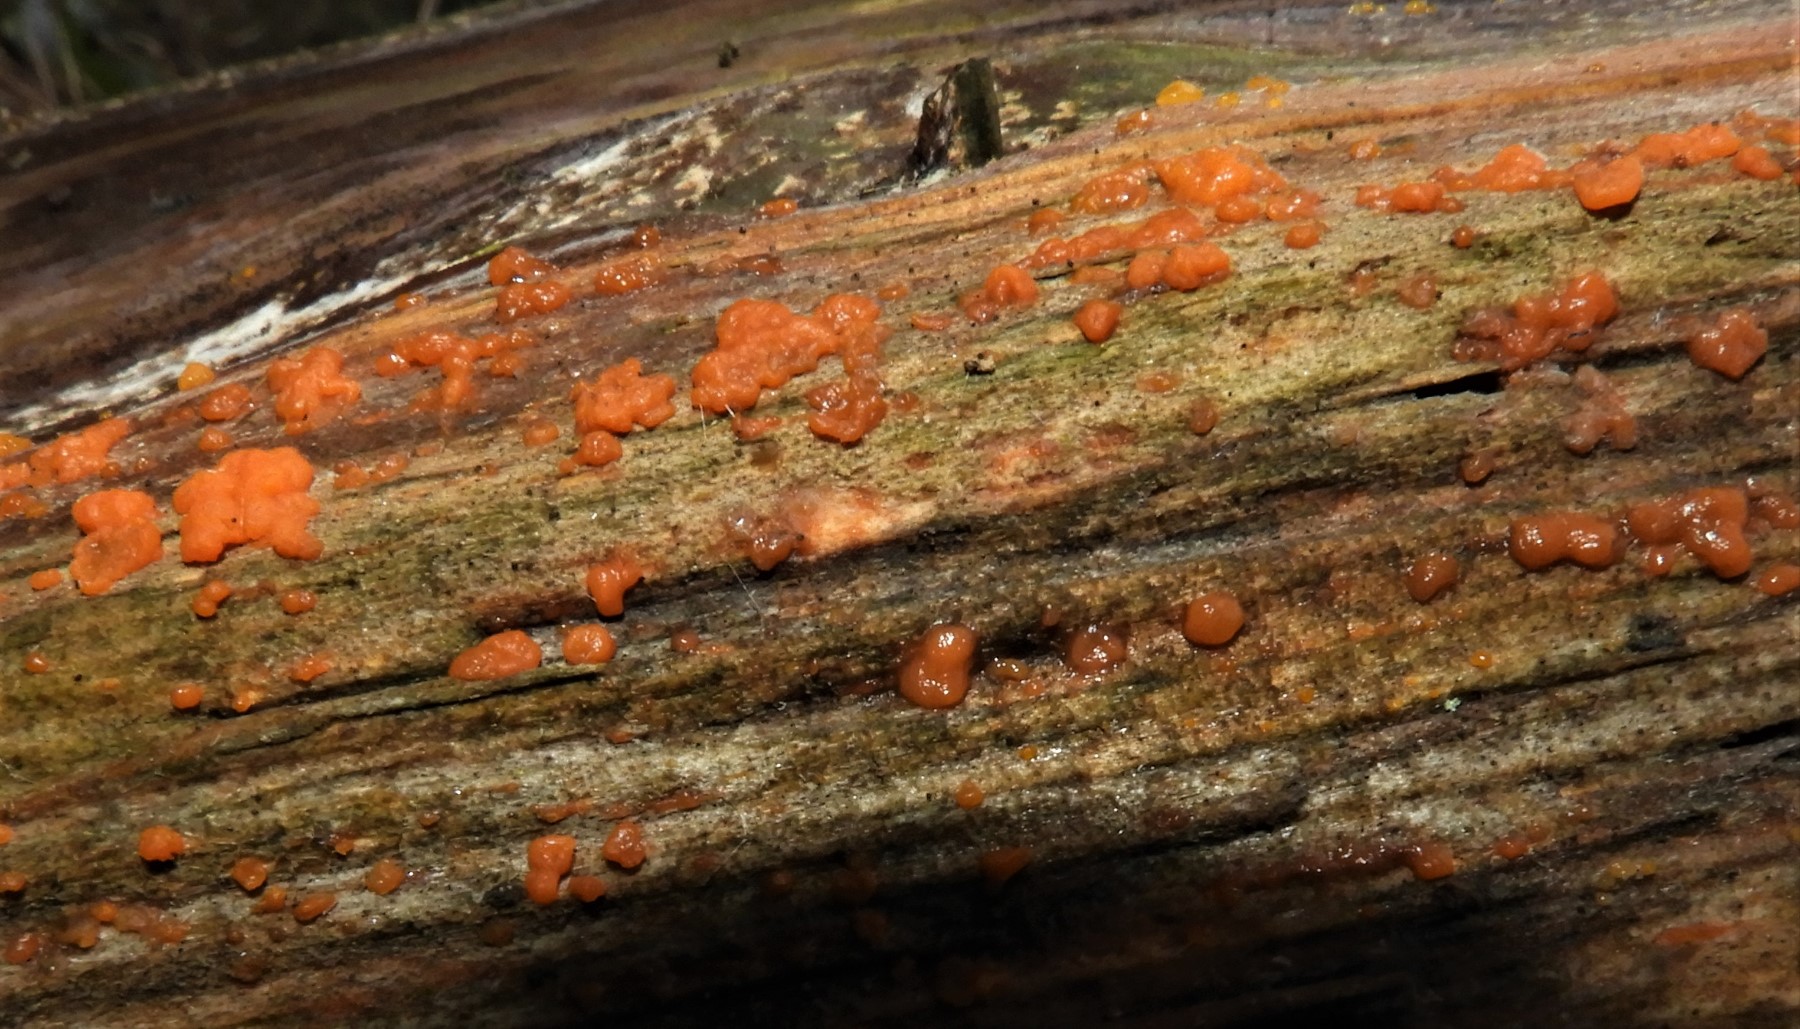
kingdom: Fungi
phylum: Basidiomycota
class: Dacrymycetes
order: Dacrymycetales
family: Dacrymycetaceae
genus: Dacrymyces
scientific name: Dacrymyces stillatus
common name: almindelig tåresvamp
